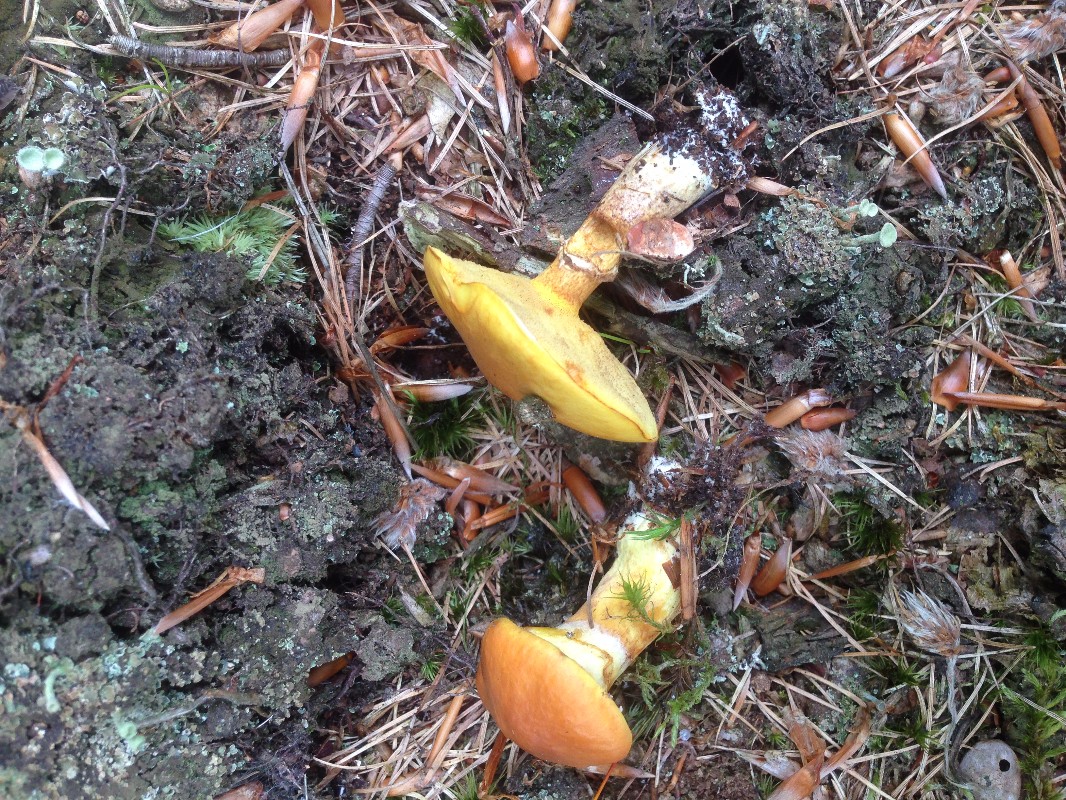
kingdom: Fungi
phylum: Basidiomycota
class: Agaricomycetes
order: Boletales
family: Suillaceae
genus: Suillus
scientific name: Suillus grevillei
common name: lærke-slimrørhat
